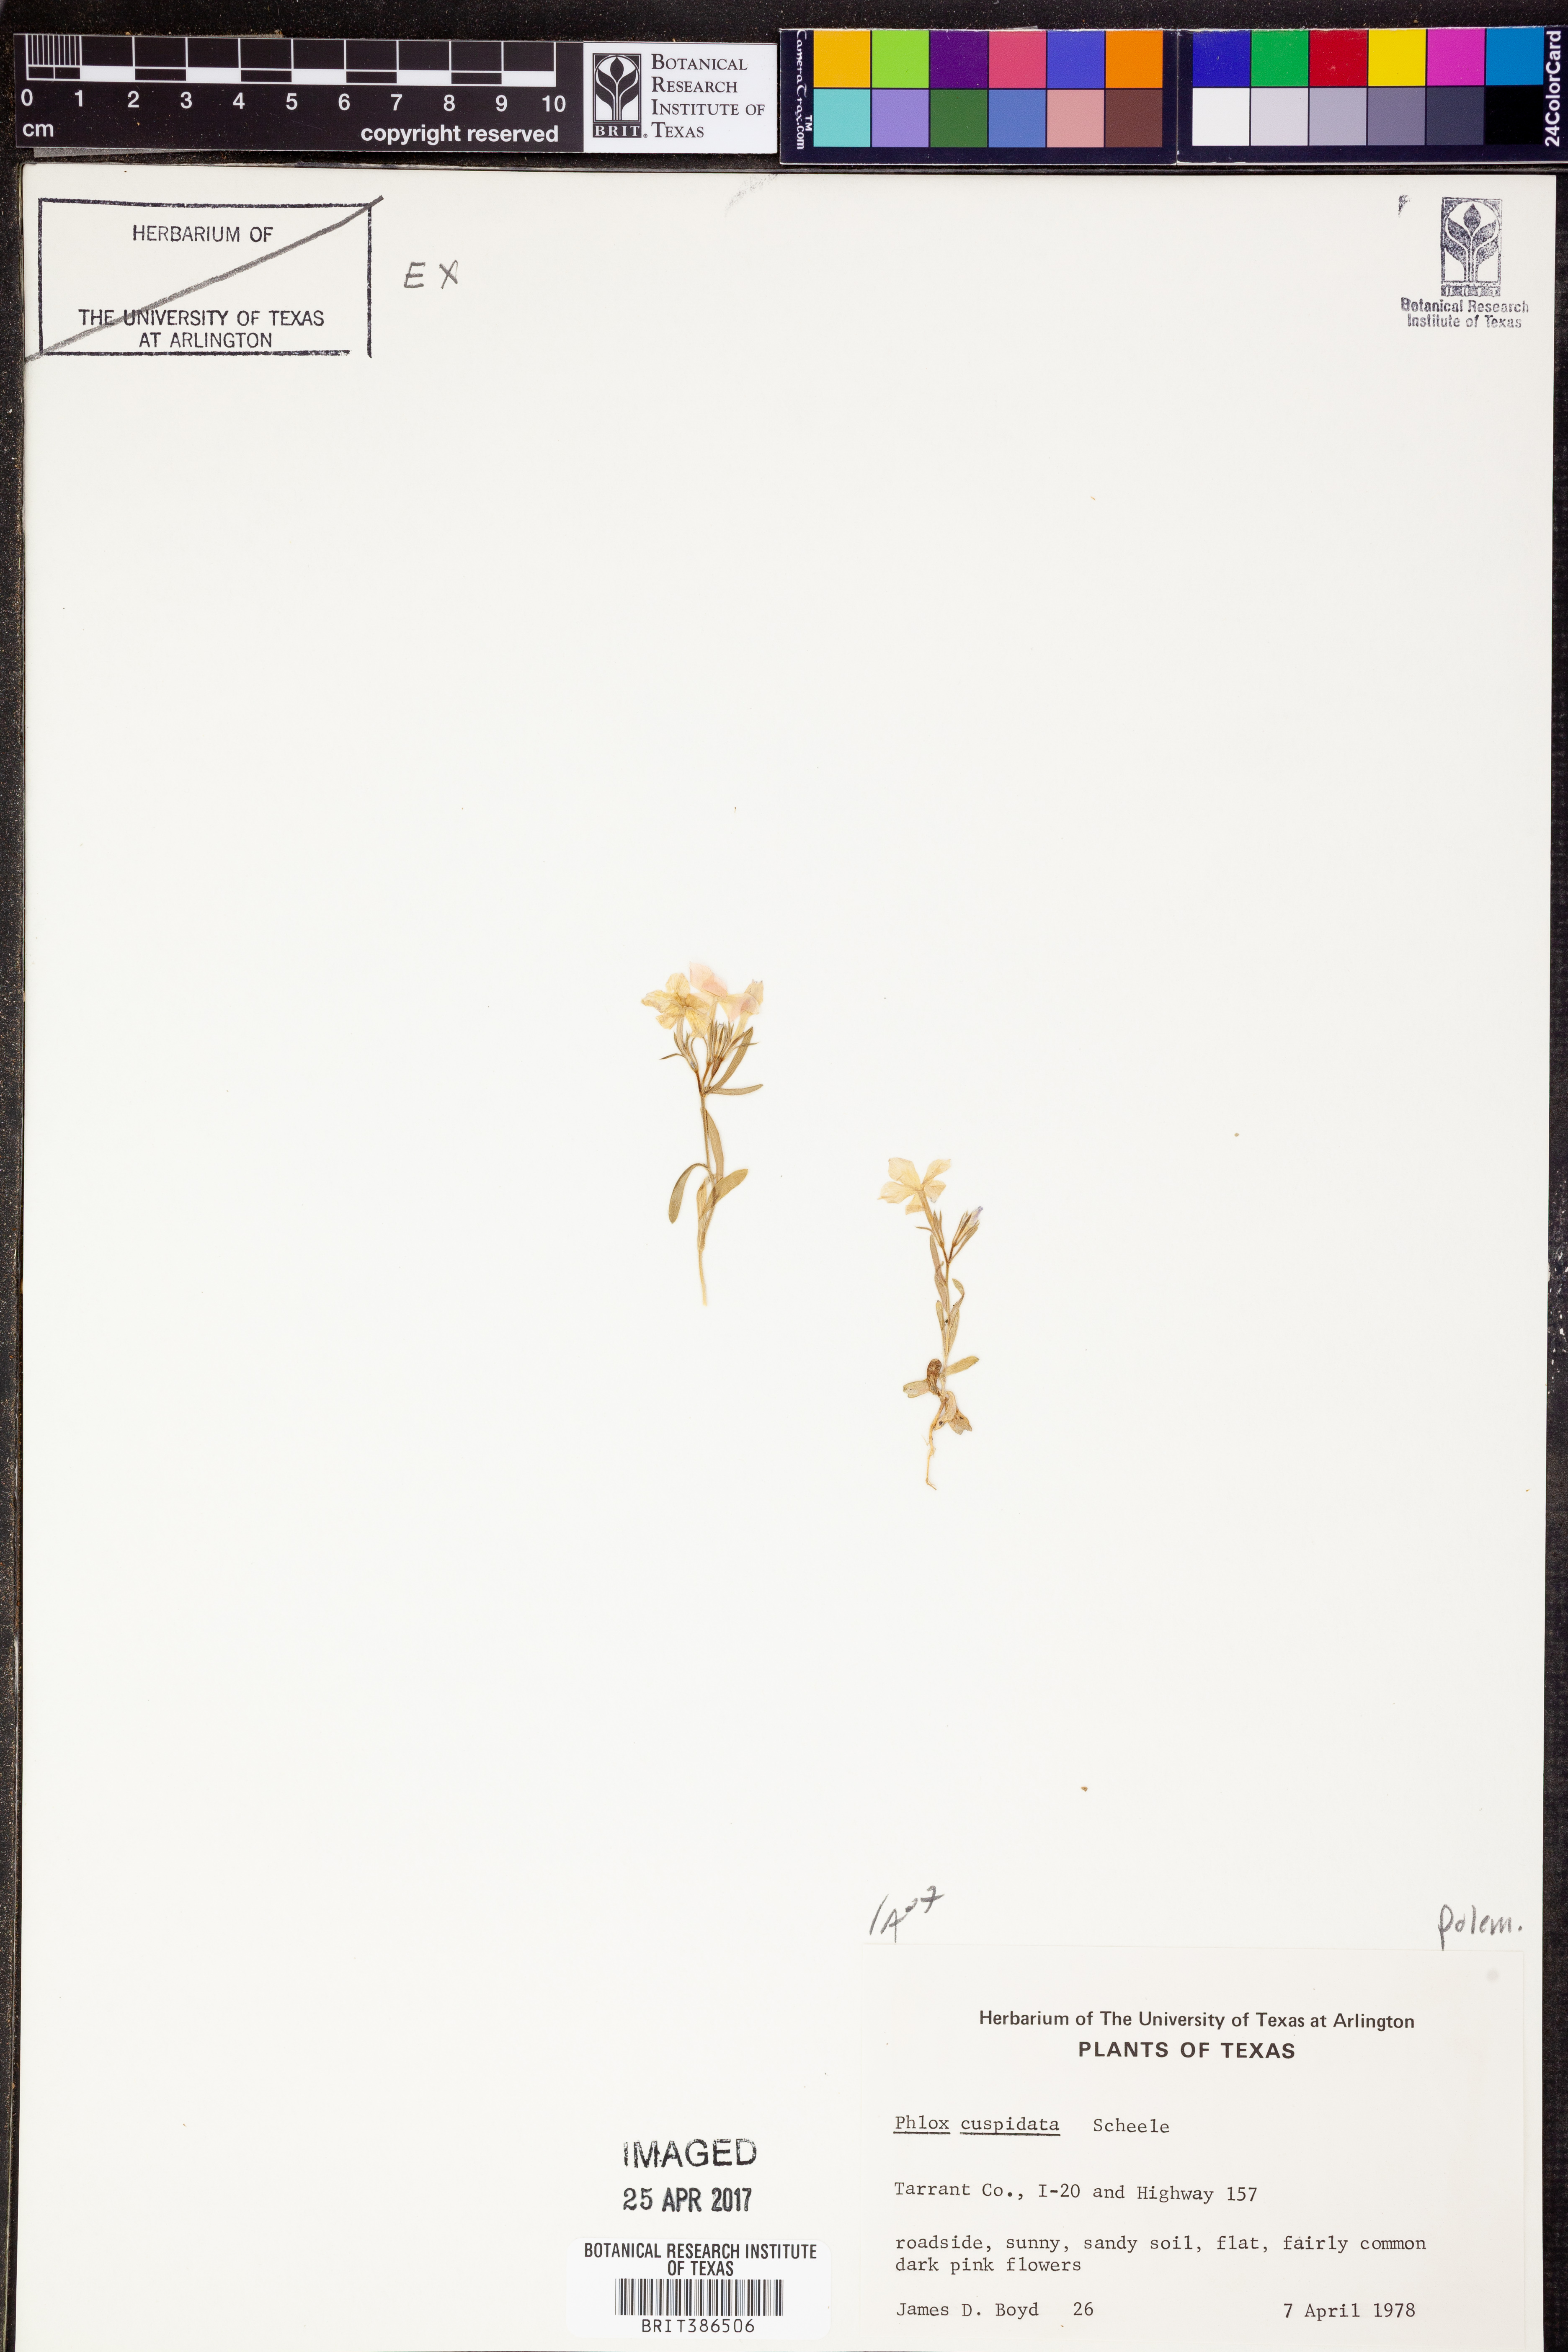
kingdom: Plantae
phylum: Tracheophyta
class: Magnoliopsida
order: Ericales
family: Polemoniaceae
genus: Phlox
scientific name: Phlox cuspidata
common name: Pointed phlox
